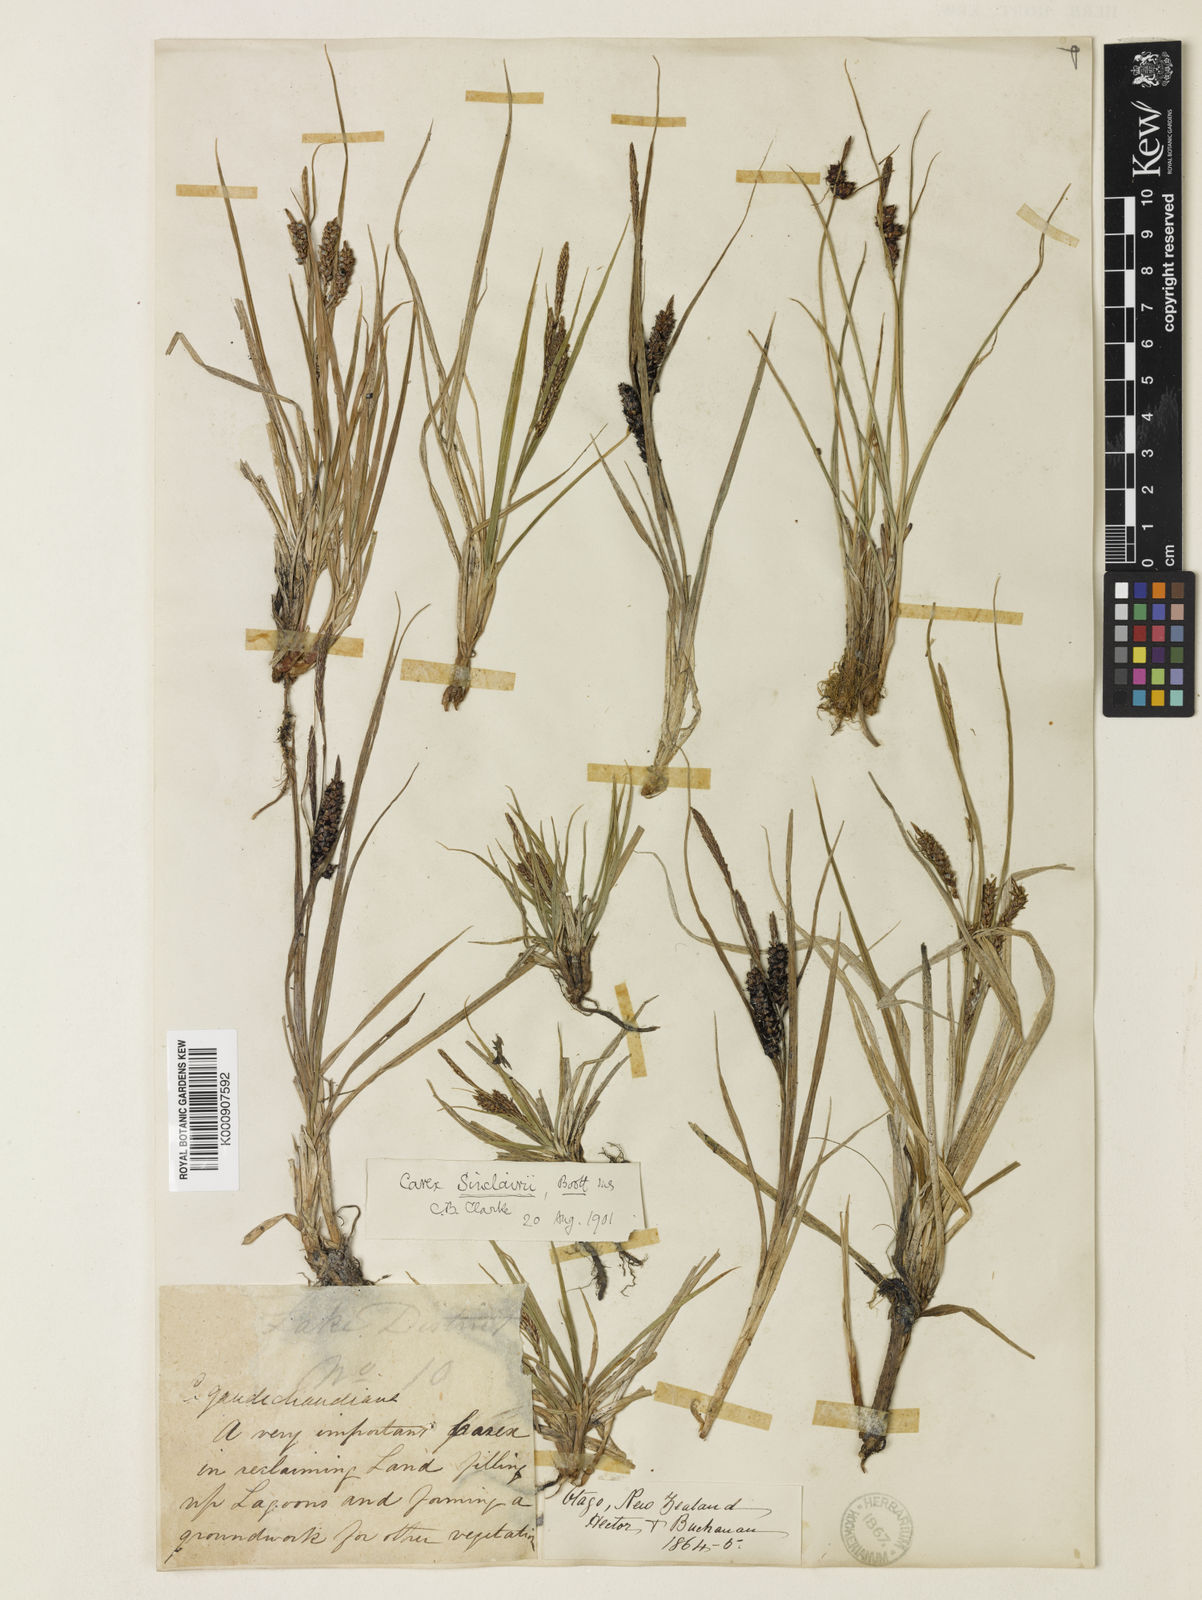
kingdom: Plantae
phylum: Tracheophyta
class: Liliopsida
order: Poales
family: Cyperaceae
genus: Carex
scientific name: Carex sinclairii
